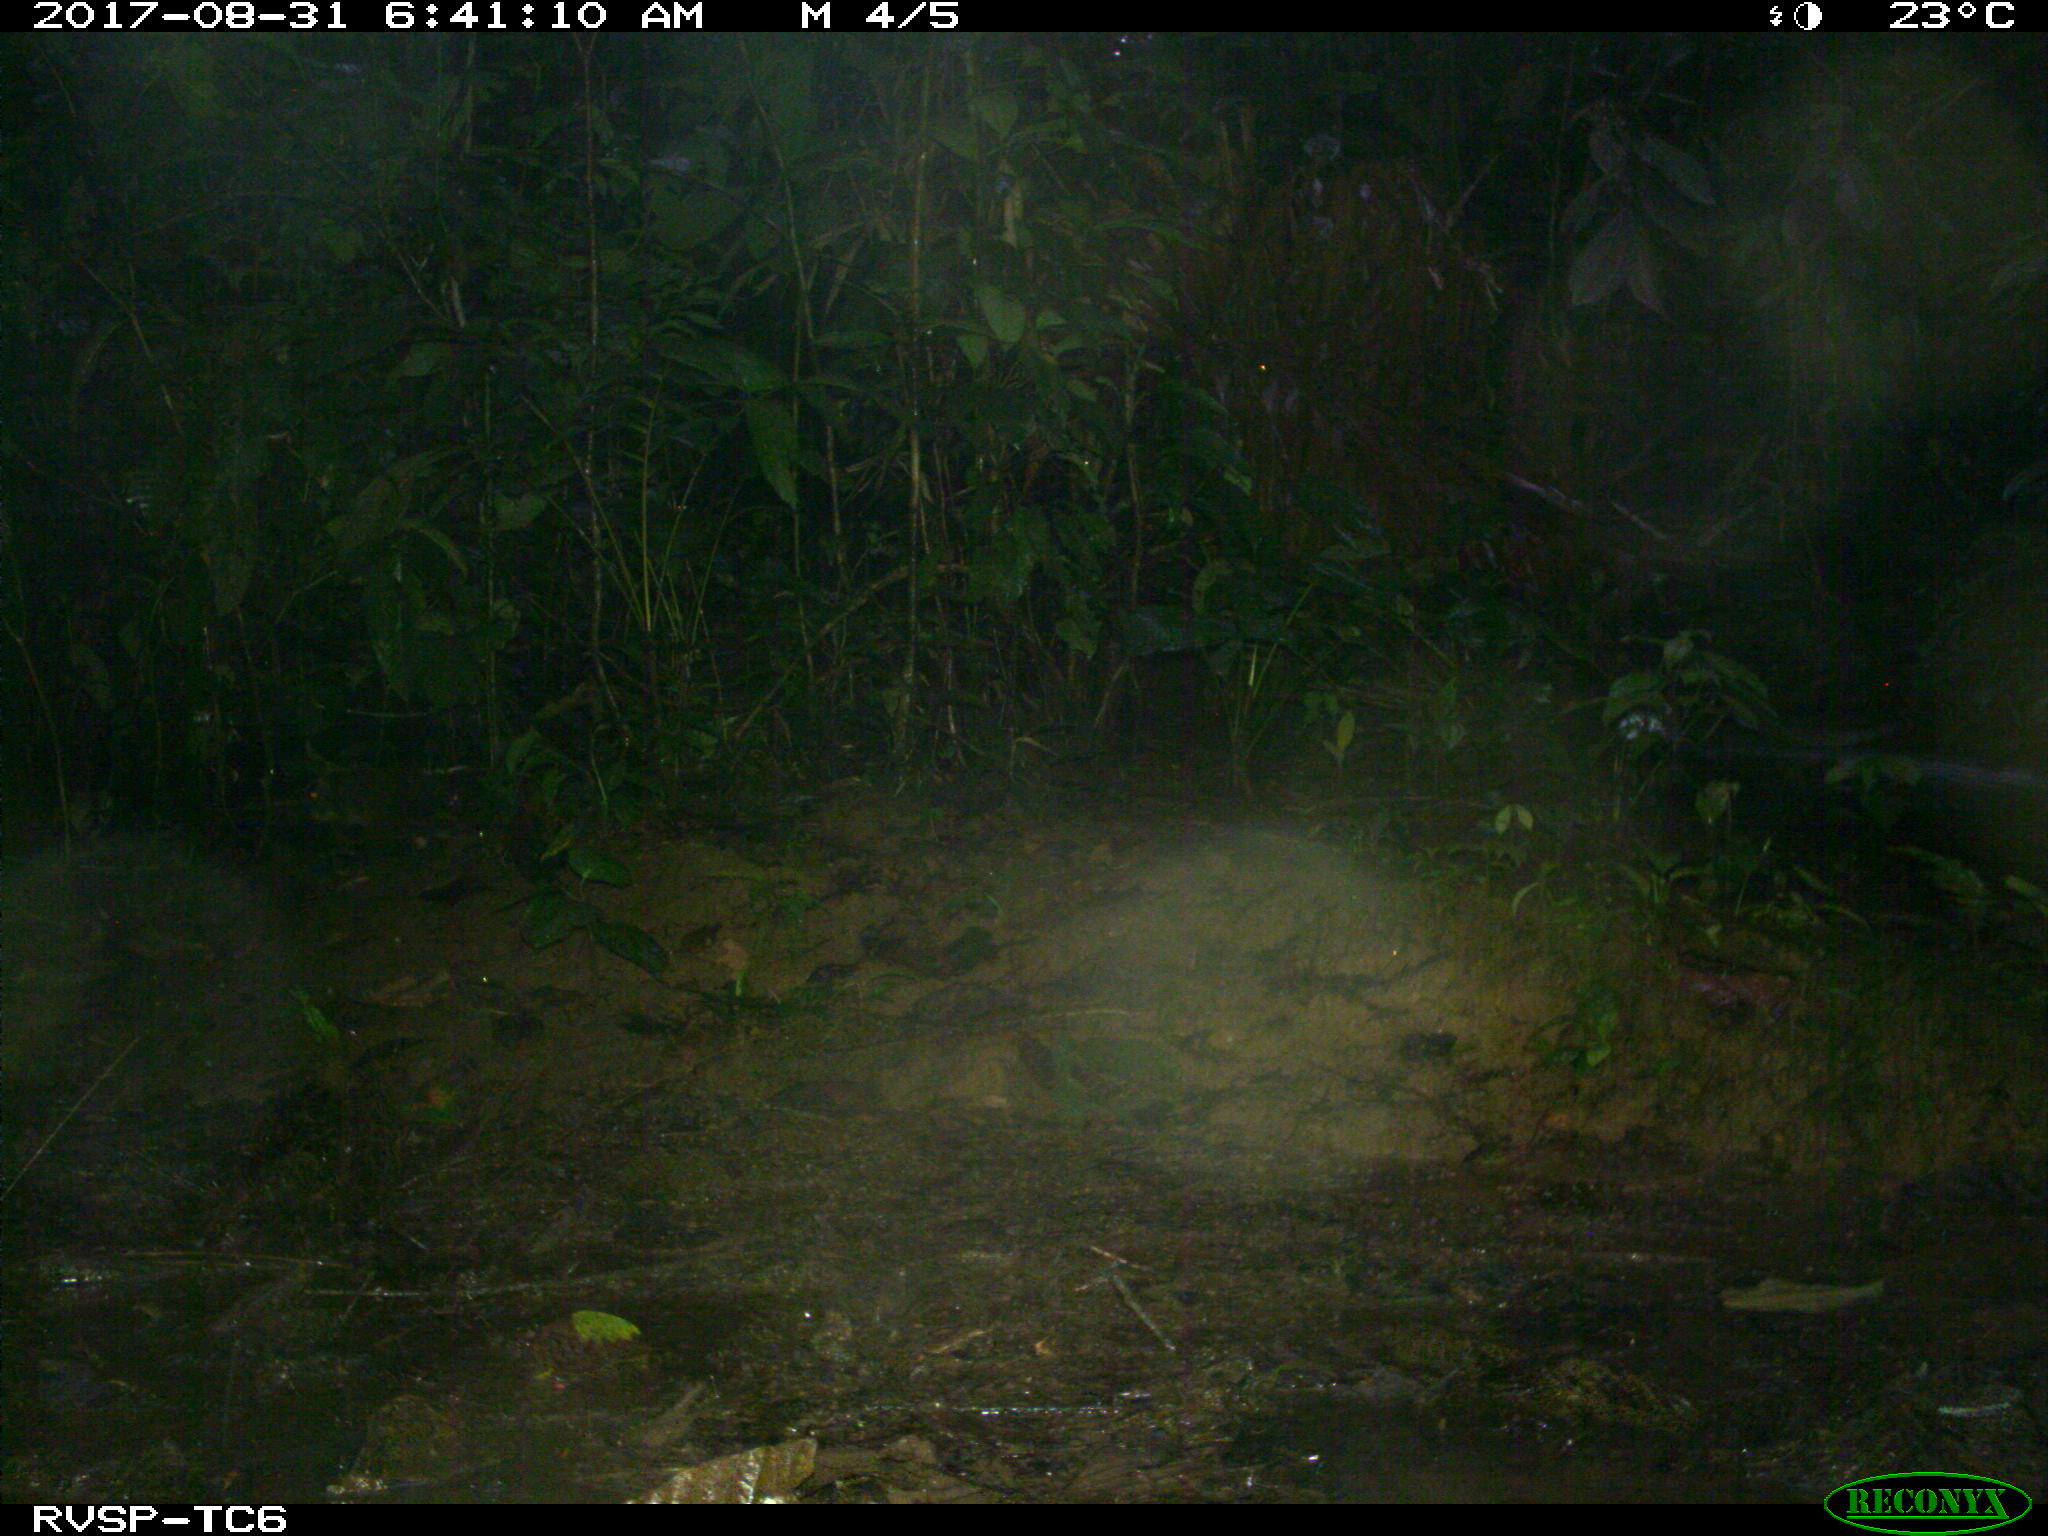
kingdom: Animalia
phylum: Chordata
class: Mammalia
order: Rodentia
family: Dasyproctidae
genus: Dasyprocta
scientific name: Dasyprocta punctata
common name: Central american agouti
